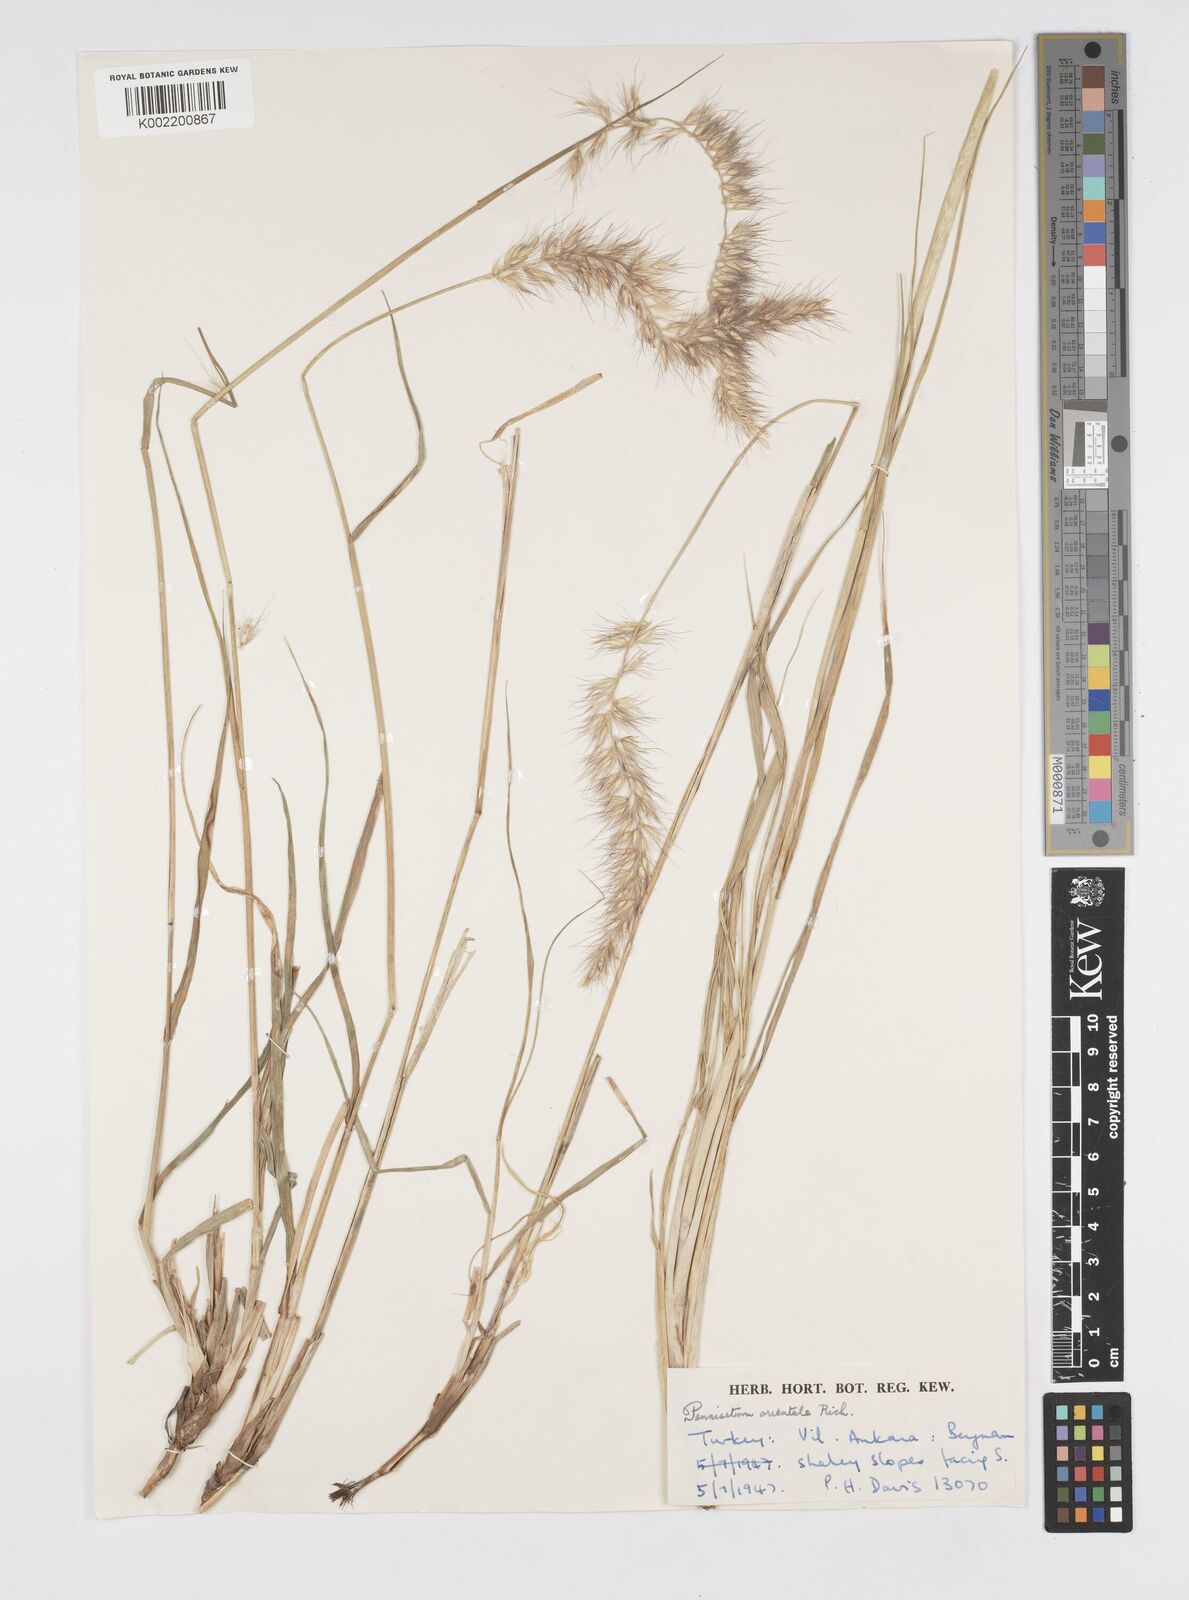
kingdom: Plantae
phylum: Tracheophyta
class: Liliopsida
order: Poales
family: Poaceae
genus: Cenchrus
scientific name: Cenchrus orientalis
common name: Oriental fountain grass
